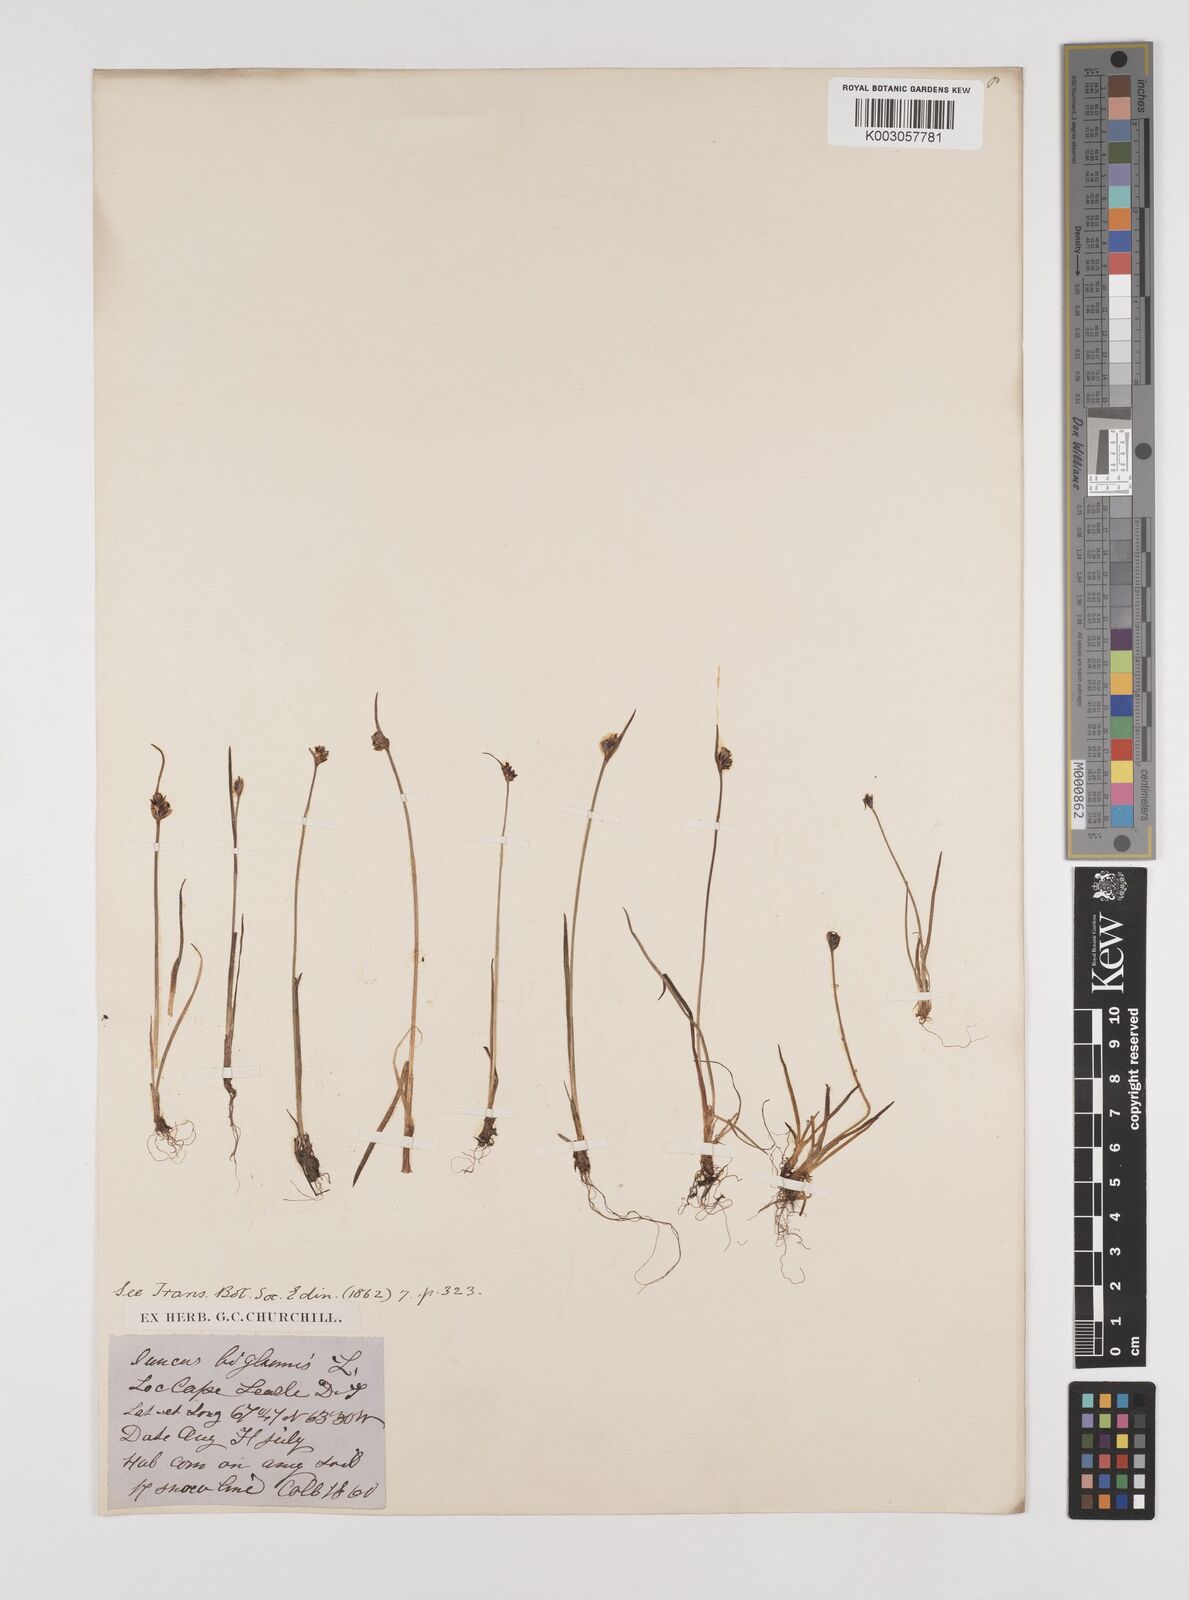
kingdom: Plantae
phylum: Tracheophyta
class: Liliopsida
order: Poales
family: Juncaceae
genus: Juncus
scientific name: Juncus biglumis
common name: Two-flowered rush
